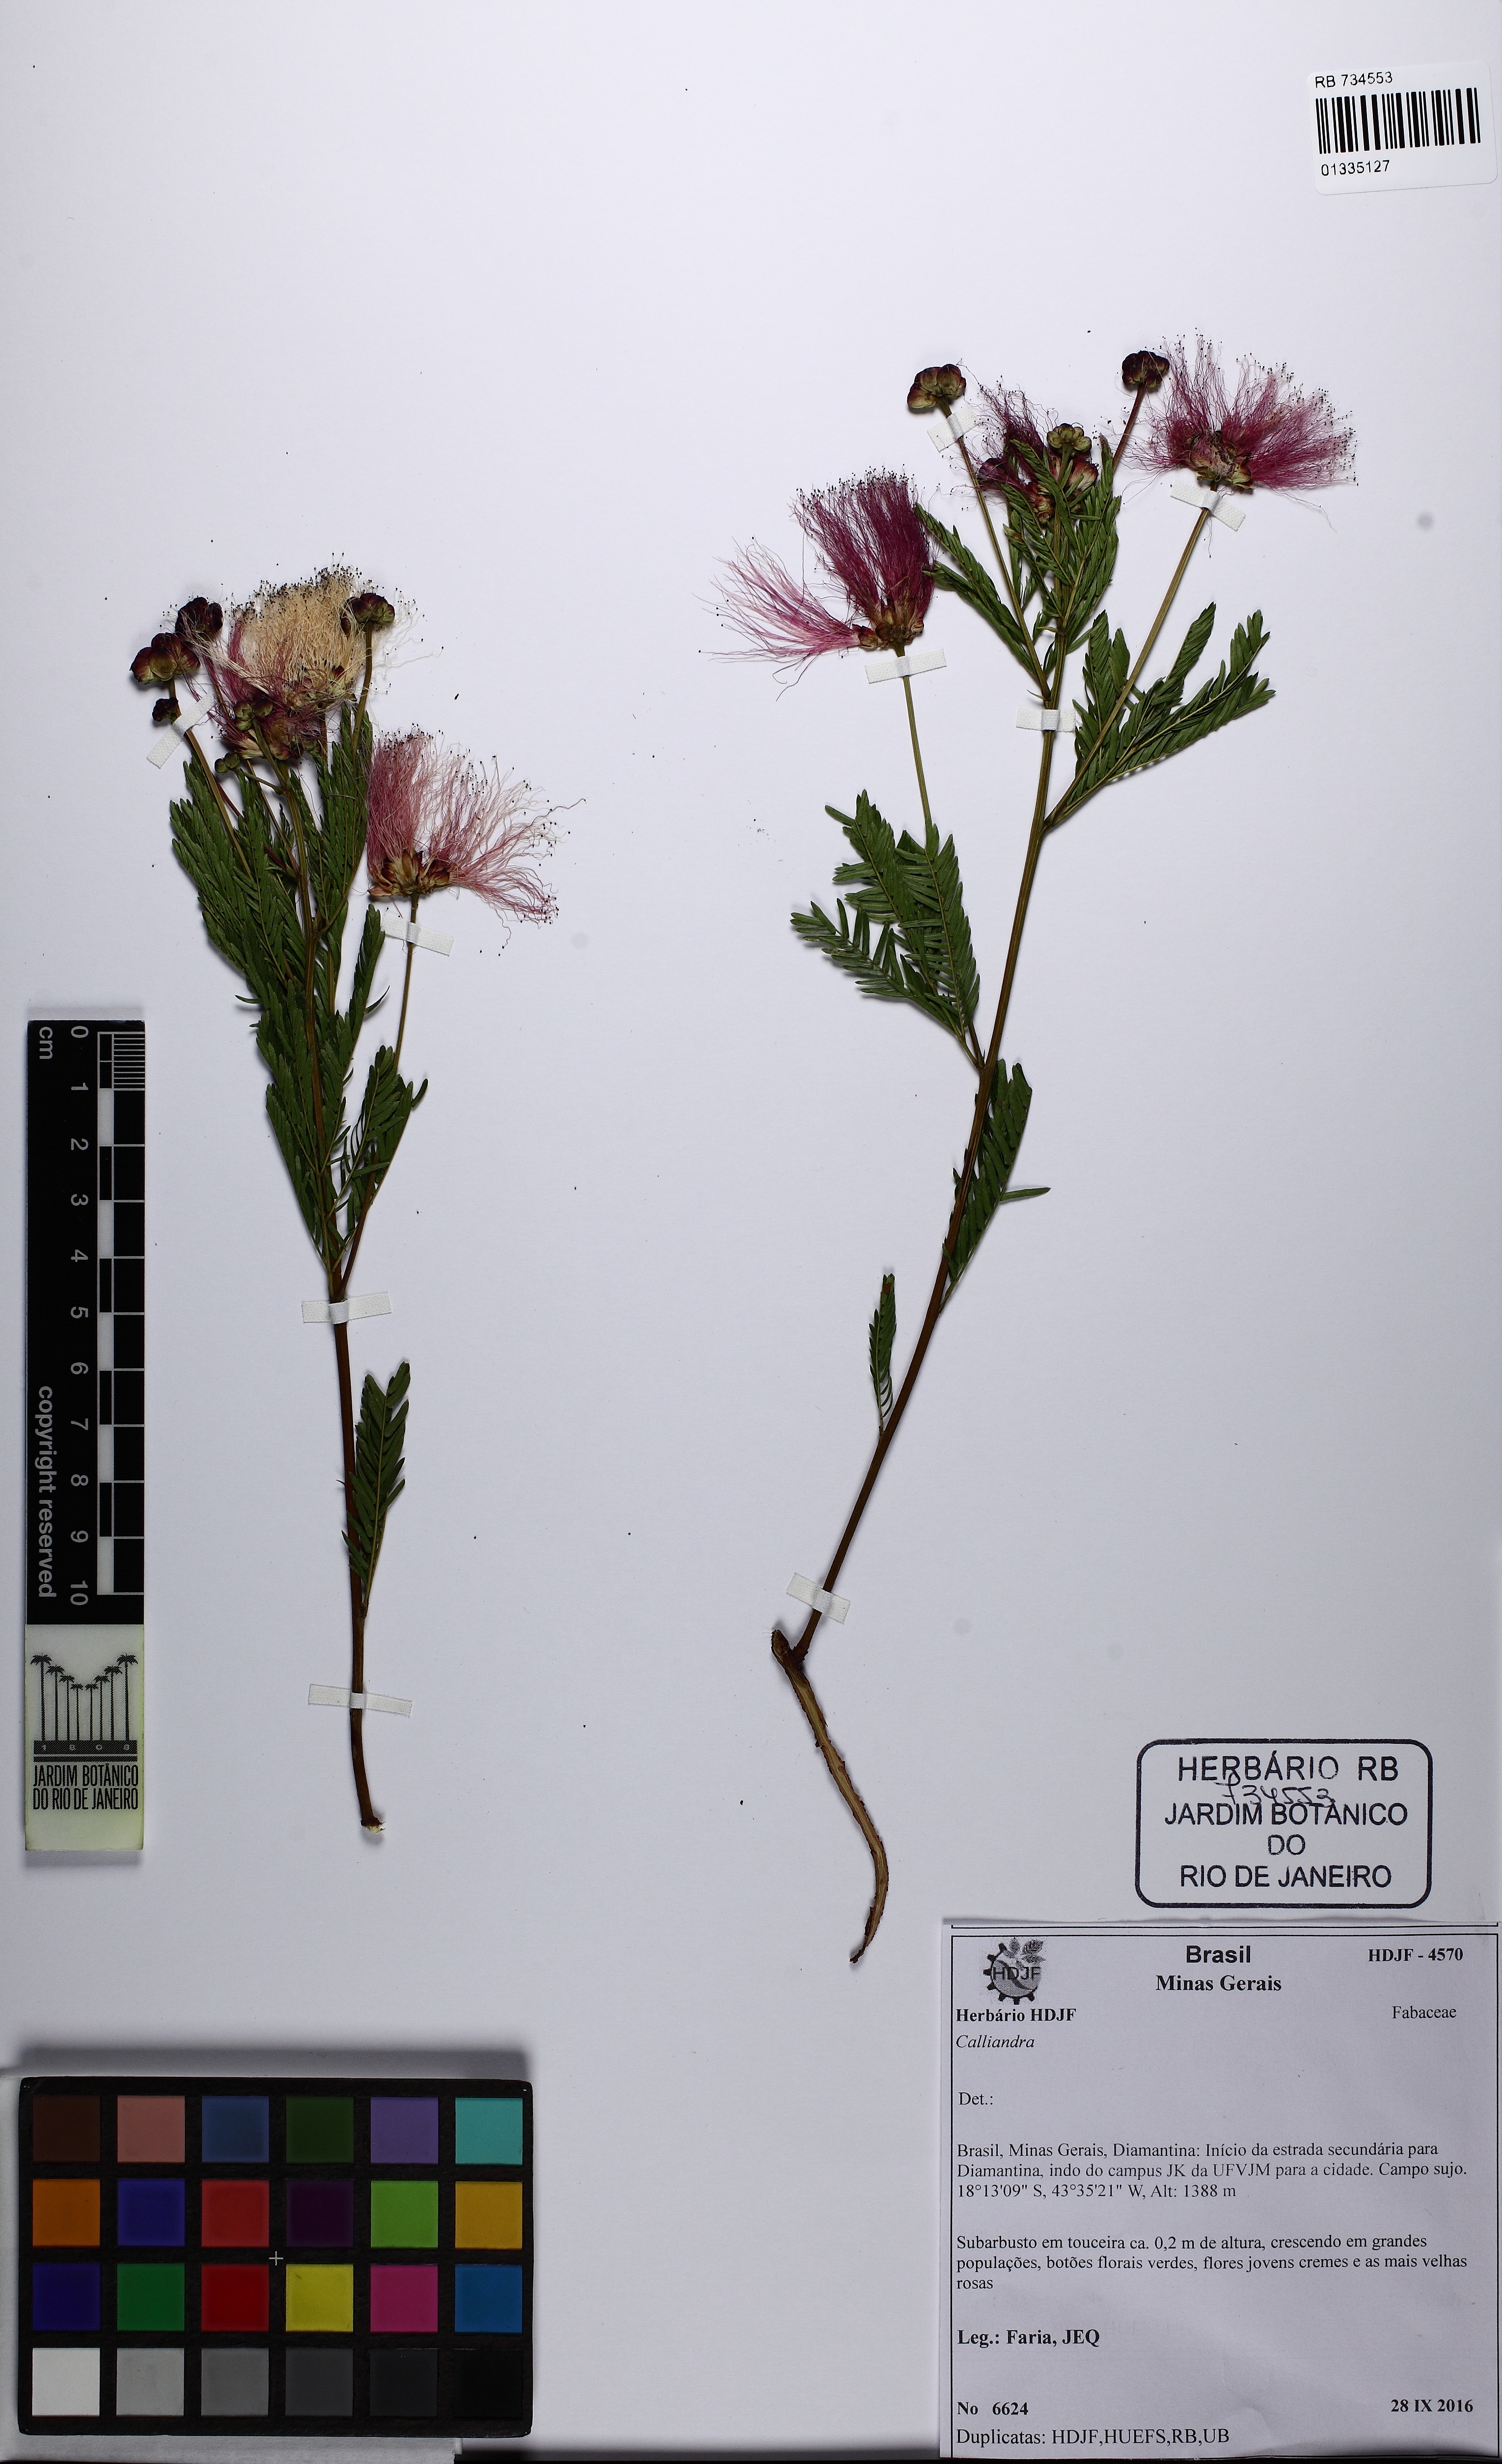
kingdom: Plantae
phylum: Tracheophyta
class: Magnoliopsida
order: Fabales
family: Fabaceae
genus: Calliandra
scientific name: Calliandra
